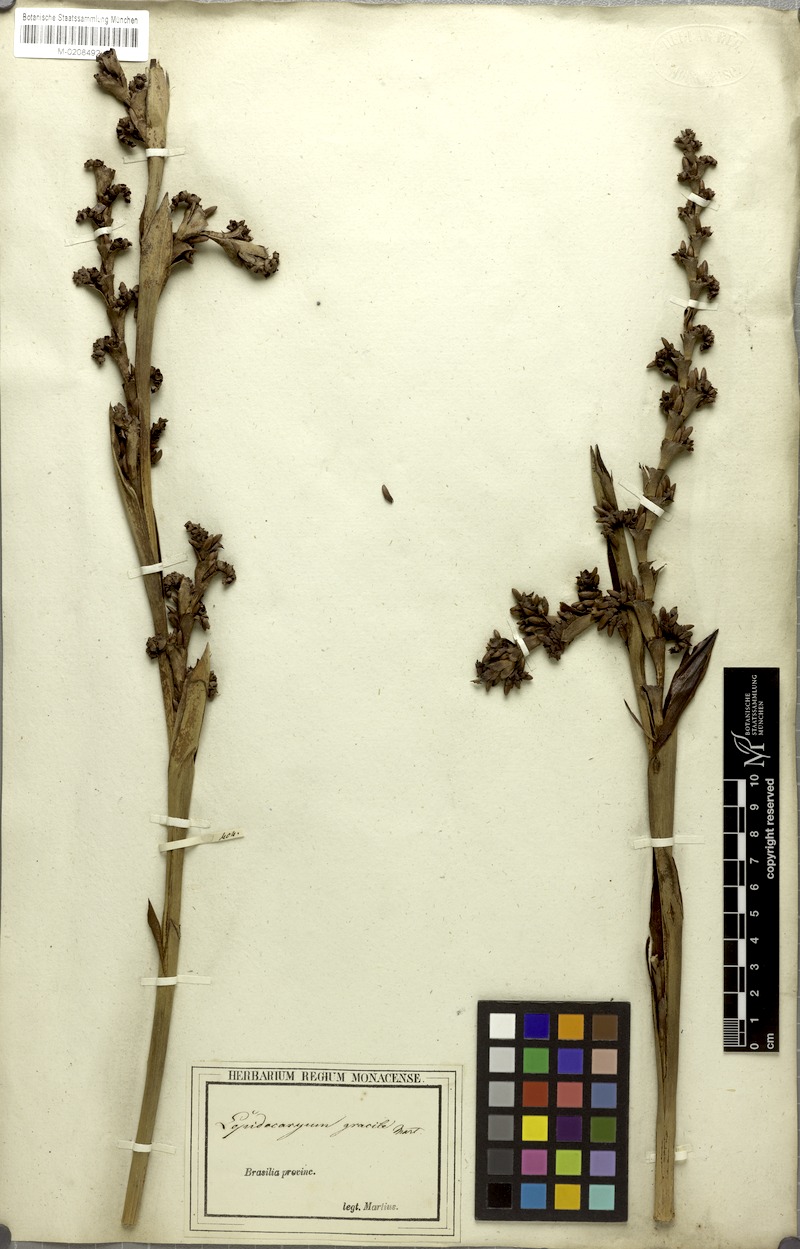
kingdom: Plantae
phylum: Tracheophyta
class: Liliopsida
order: Arecales
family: Arecaceae
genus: Lepidocaryum
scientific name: Lepidocaryum tenue
